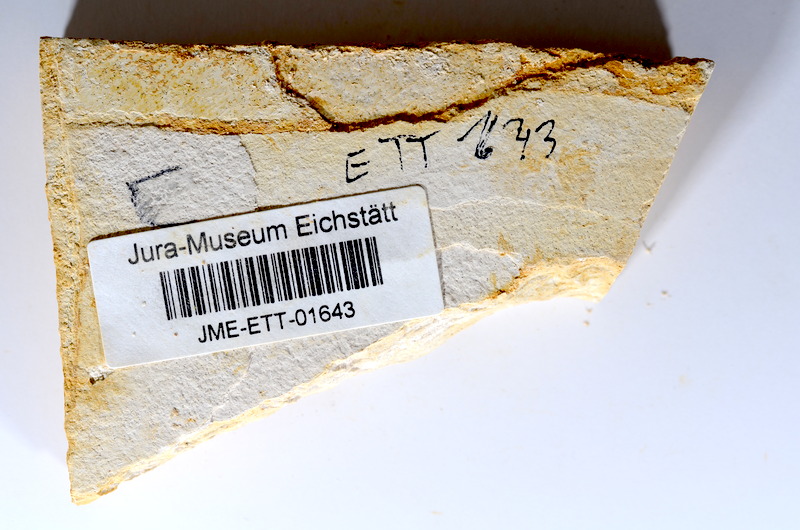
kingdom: Animalia
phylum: Chordata
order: Salmoniformes
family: Orthogonikleithridae
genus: Orthogonikleithrus
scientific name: Orthogonikleithrus hoelli
